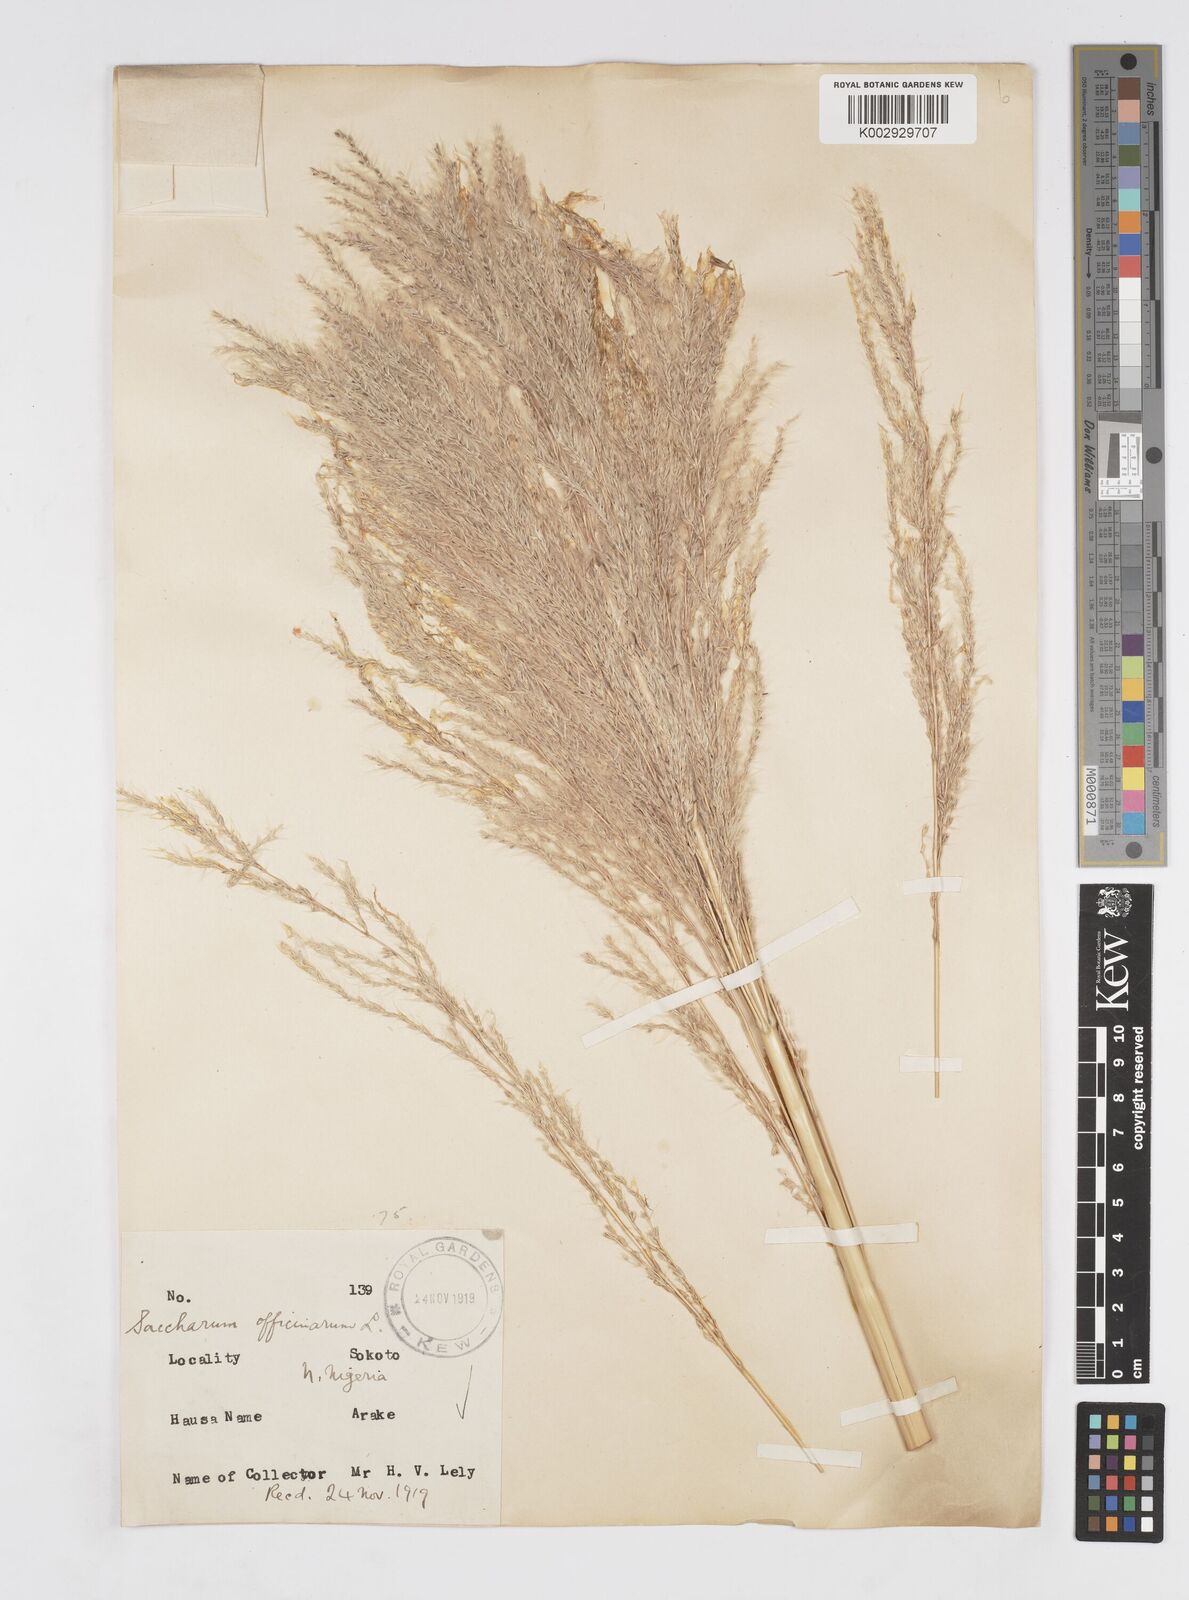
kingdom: Plantae
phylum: Tracheophyta
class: Liliopsida
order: Poales
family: Poaceae
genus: Saccharum
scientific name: Saccharum officinarum
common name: Sugarcane
